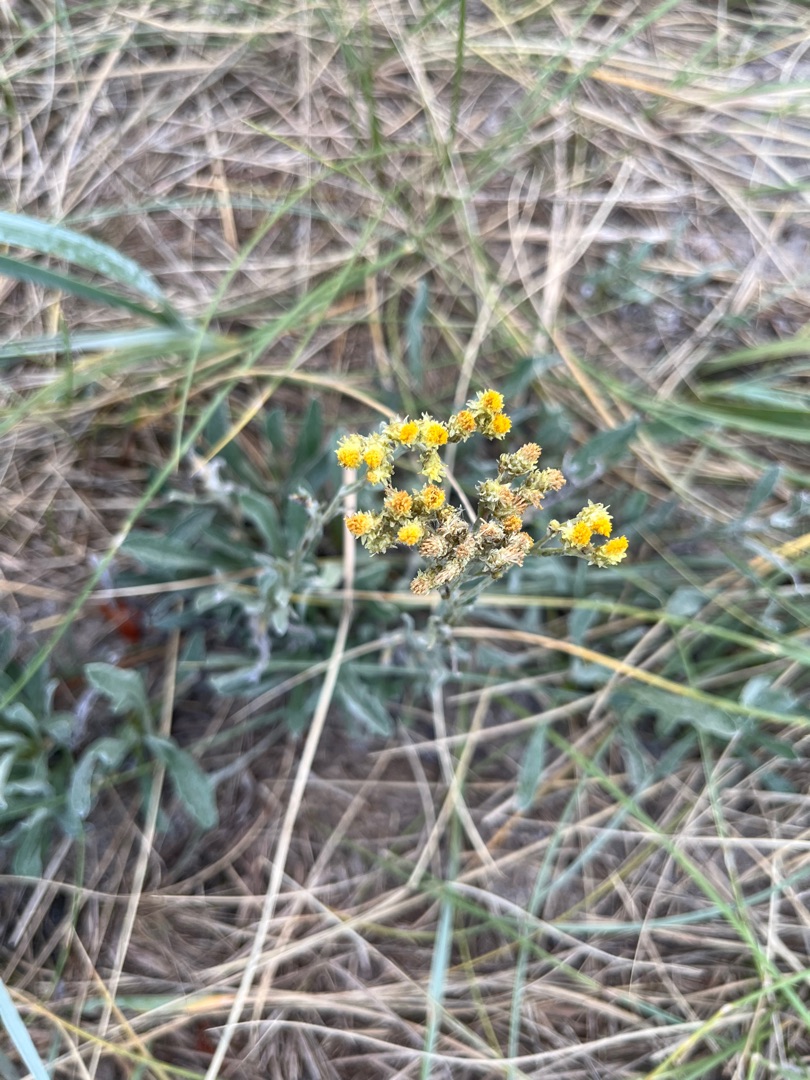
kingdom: Plantae
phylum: Tracheophyta
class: Magnoliopsida
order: Asterales
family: Asteraceae
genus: Helichrysum
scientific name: Helichrysum arenarium
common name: Gul evighedsblomst
